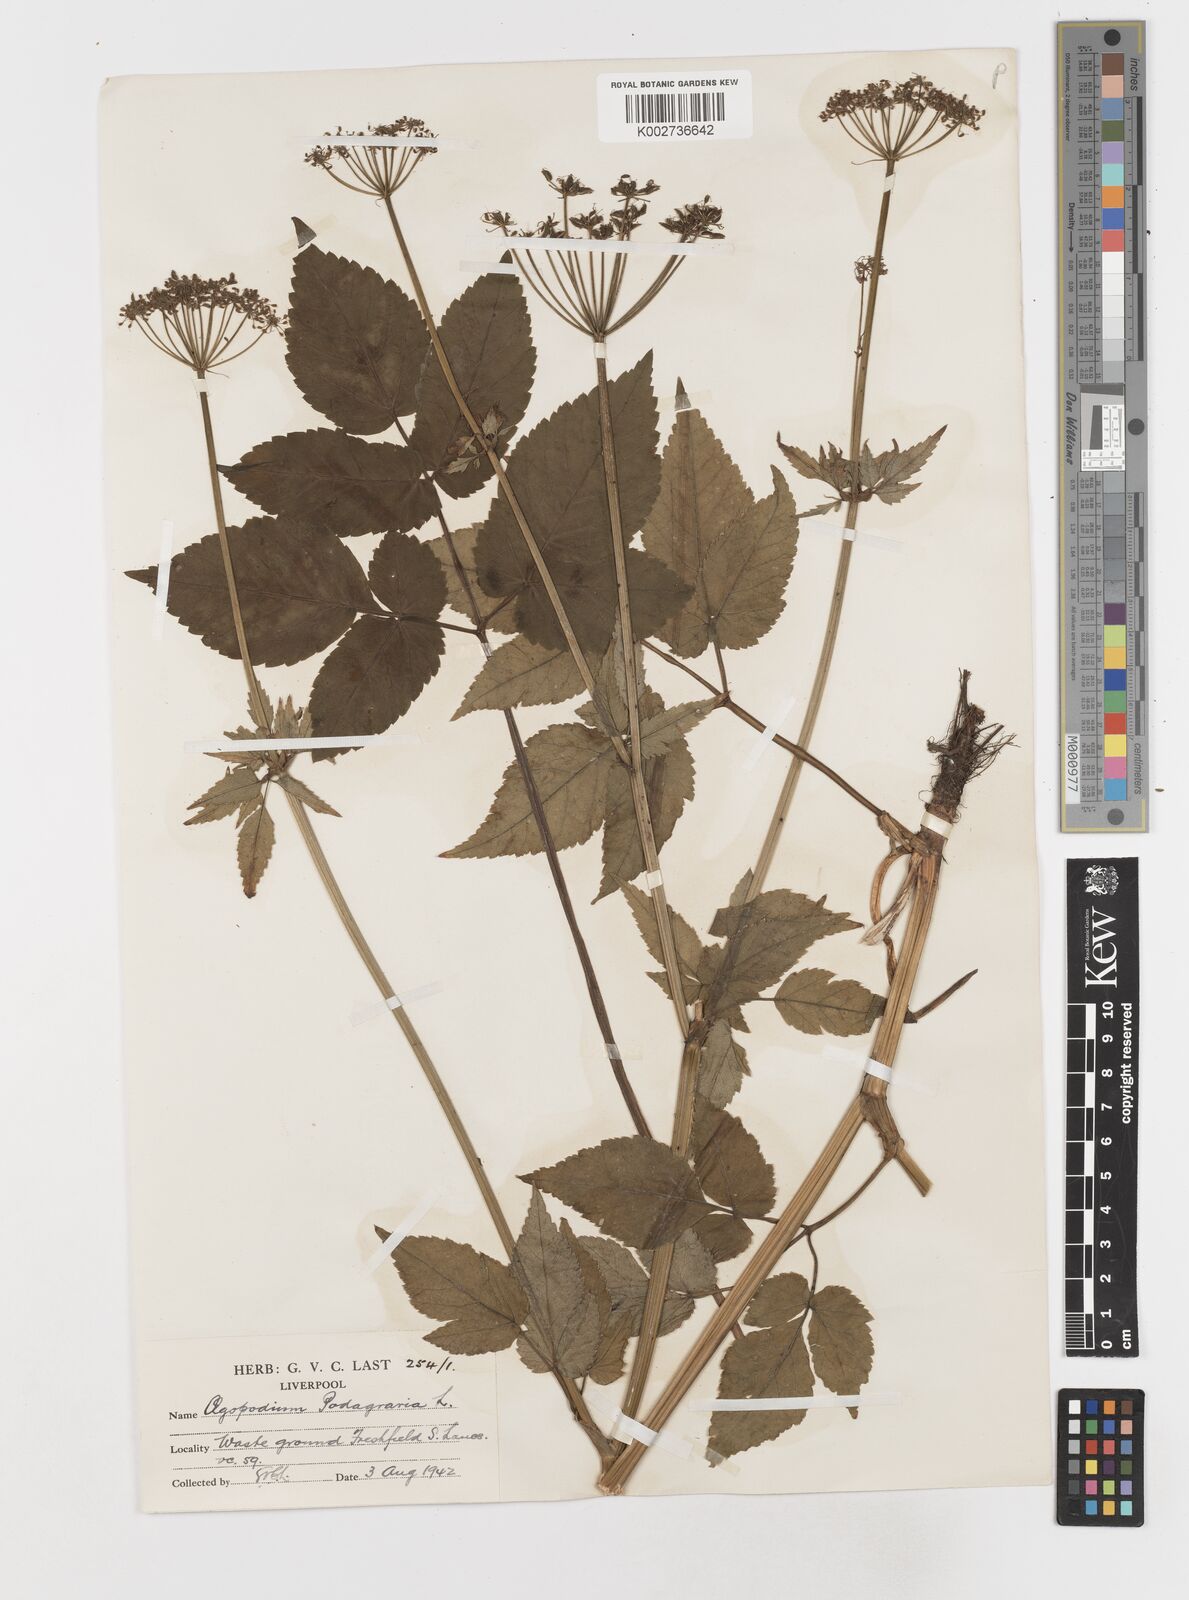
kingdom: Plantae
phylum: Tracheophyta
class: Magnoliopsida
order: Apiales
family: Apiaceae
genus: Aegopodium
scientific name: Aegopodium podagraria
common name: Ground-elder
